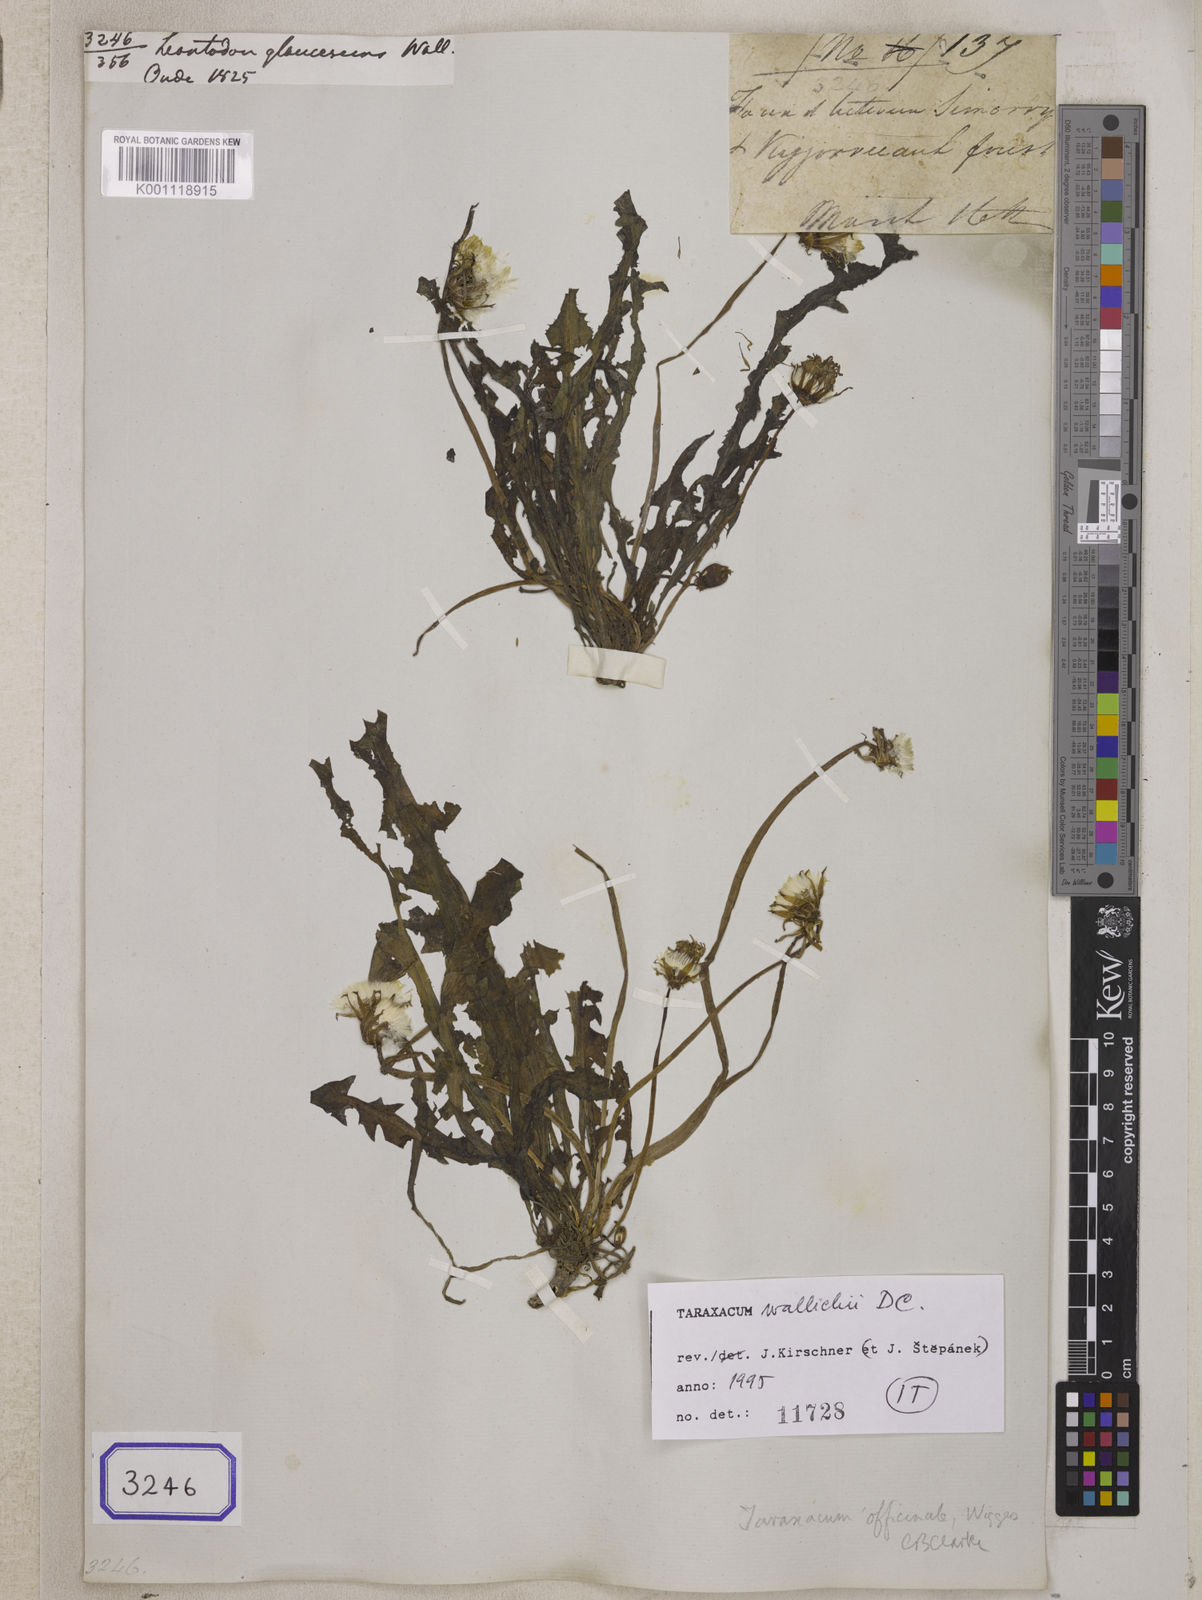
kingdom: Plantae
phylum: Tracheophyta
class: Magnoliopsida
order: Asterales
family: Asteraceae
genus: Taraxacum
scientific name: Taraxacum decipiens
